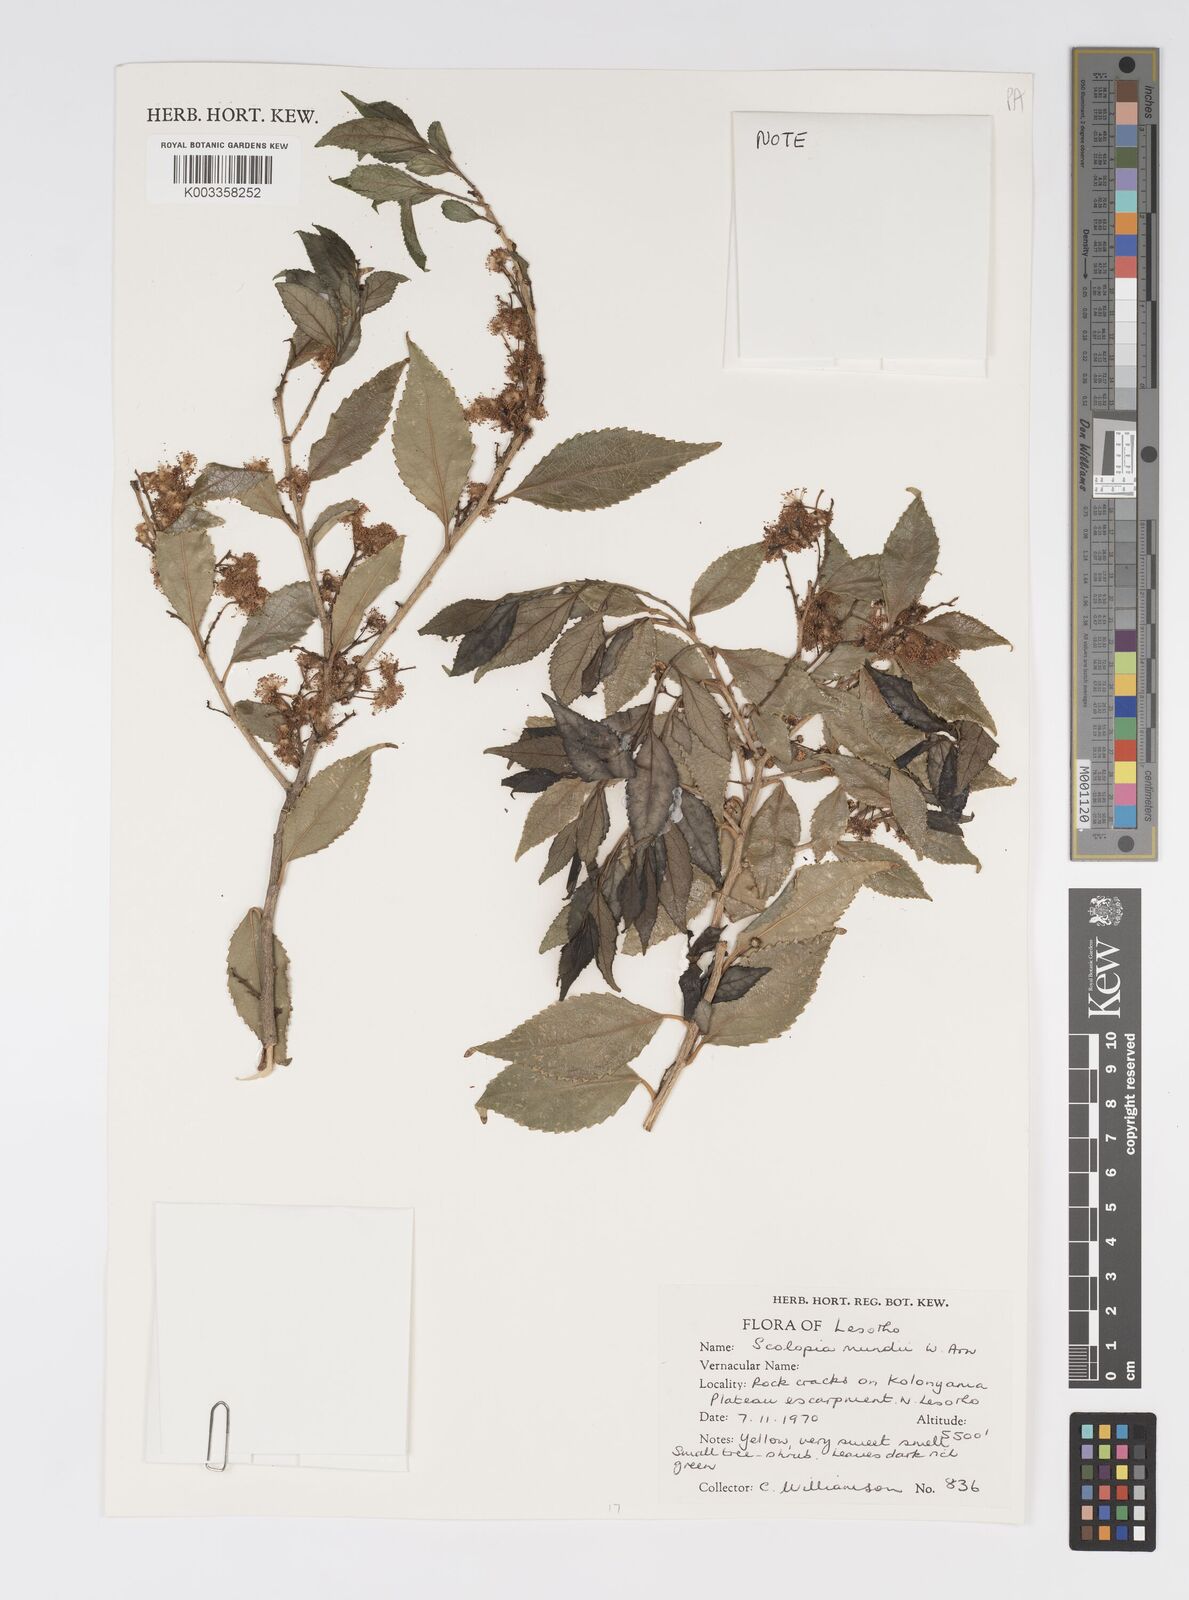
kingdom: Plantae
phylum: Tracheophyta
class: Magnoliopsida
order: Malpighiales
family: Salicaceae
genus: Scolopia
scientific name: Scolopia mundii
